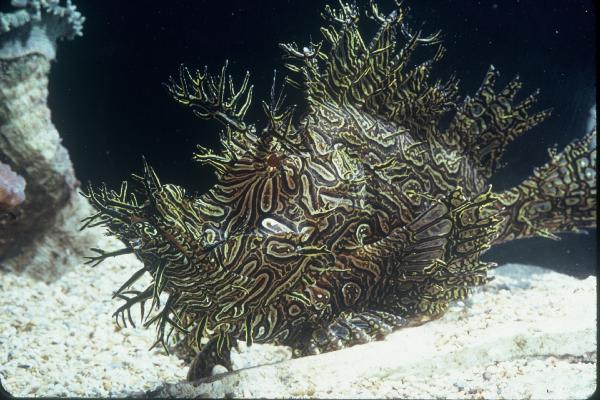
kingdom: Animalia
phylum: Chordata
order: Scorpaeniformes
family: Scorpaenidae
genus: Rhinopias
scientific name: Rhinopias frondosa
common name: Weedy scorpionfish
